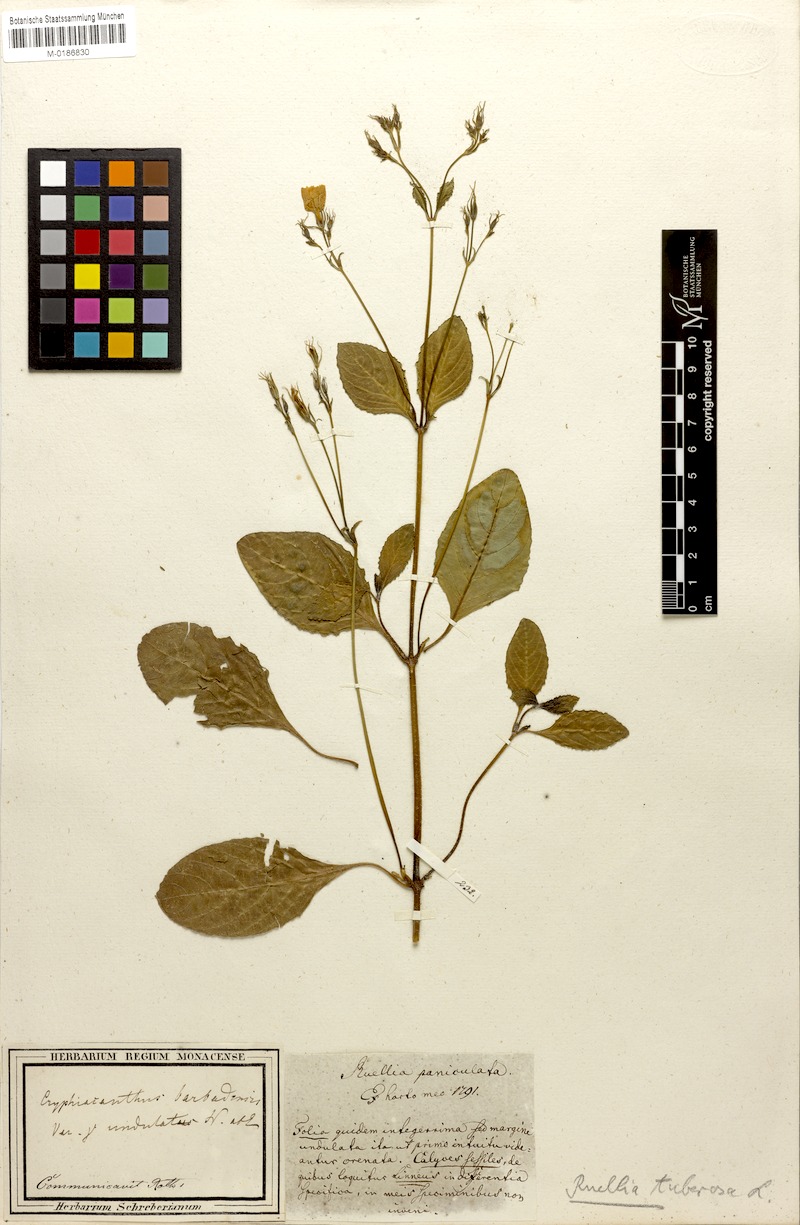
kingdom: Plantae
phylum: Tracheophyta
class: Magnoliopsida
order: Lamiales
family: Acanthaceae
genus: Ruellia
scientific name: Ruellia tuberosa
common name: Devil's bit
